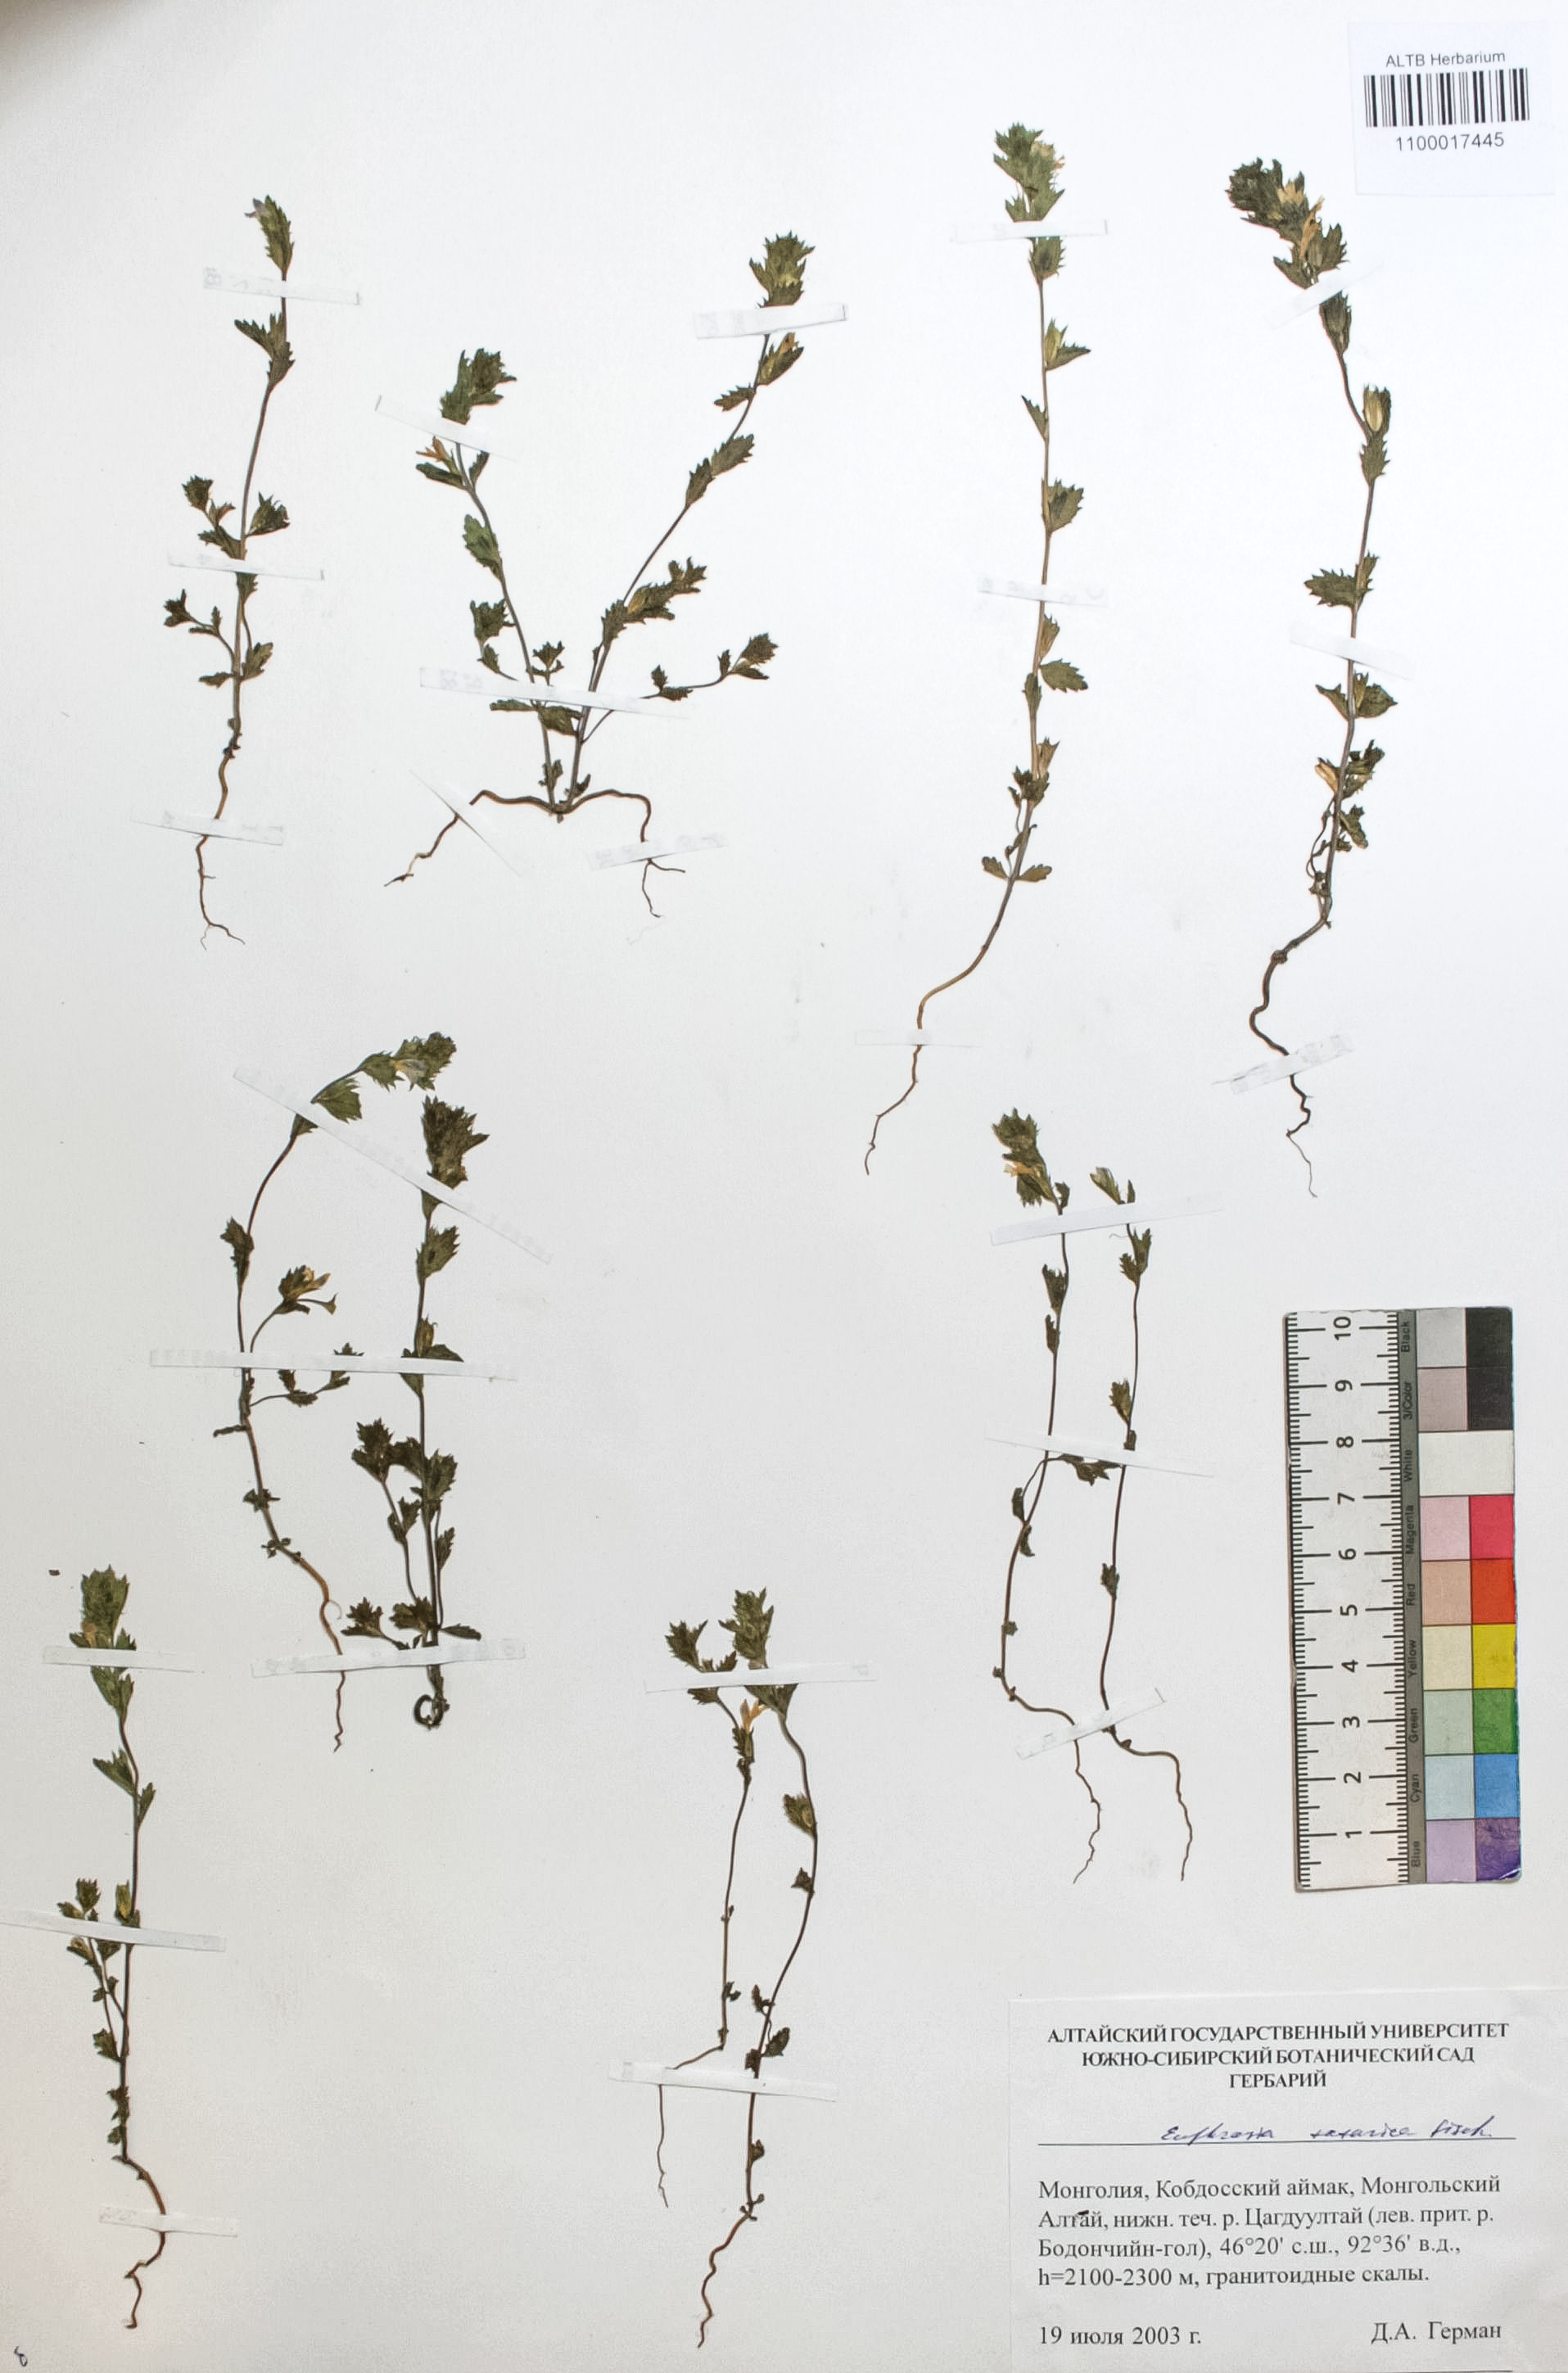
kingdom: Plantae
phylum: Tracheophyta
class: Magnoliopsida
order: Lamiales
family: Orobanchaceae
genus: Euphrasia
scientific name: Euphrasia pectinata
